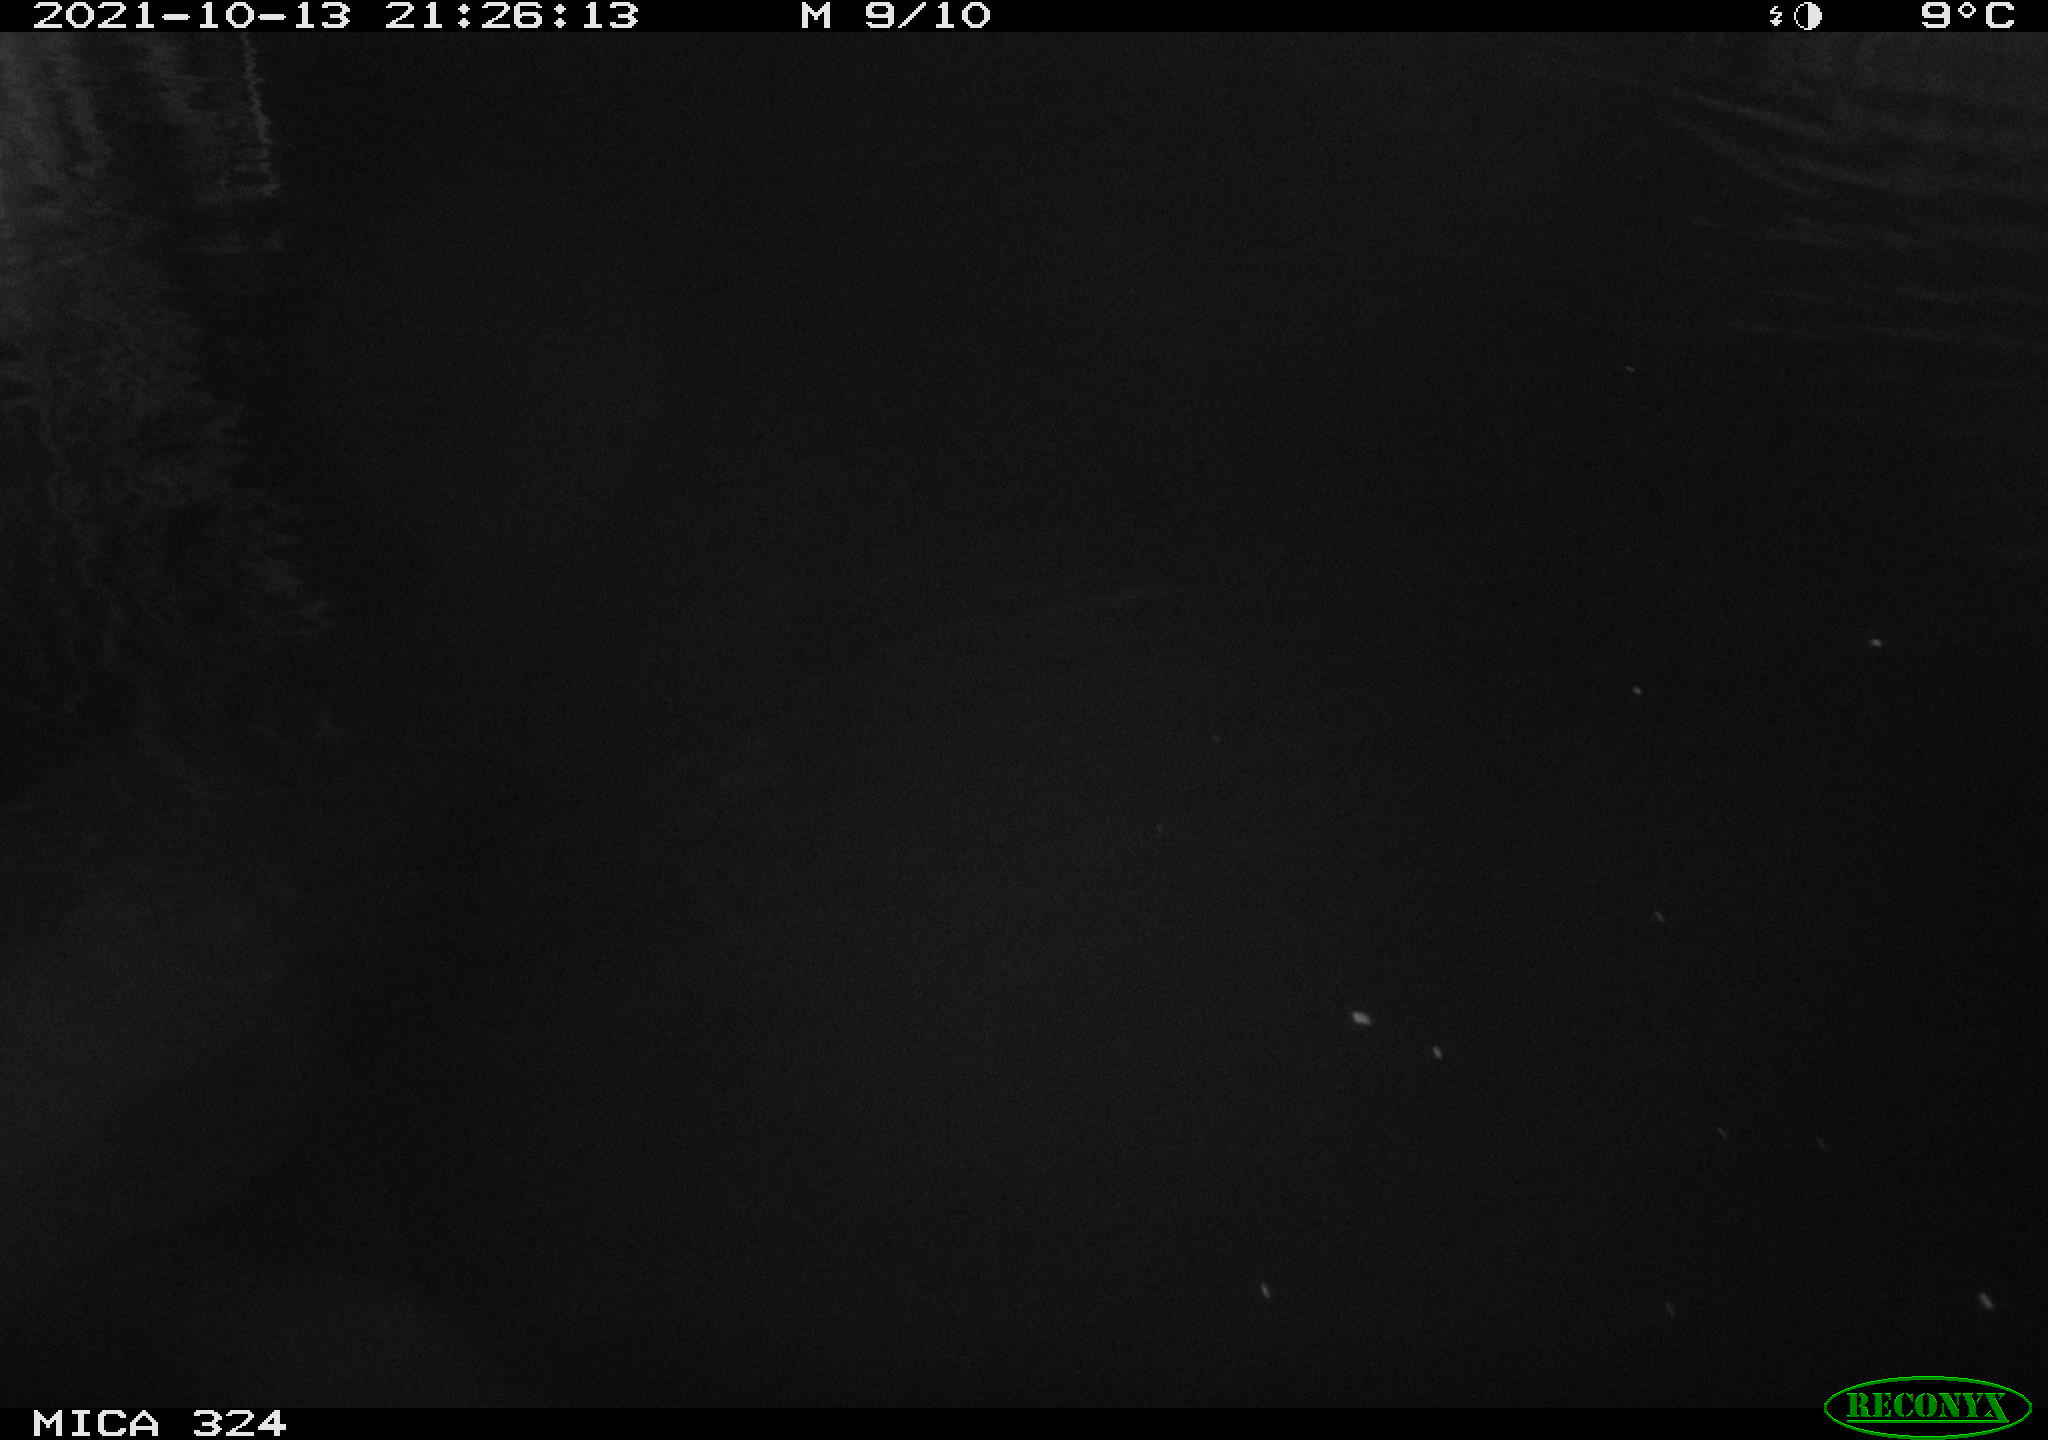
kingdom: Animalia
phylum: Chordata
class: Mammalia
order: Rodentia
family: Cricetidae
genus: Ondatra
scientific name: Ondatra zibethicus
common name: Muskrat
